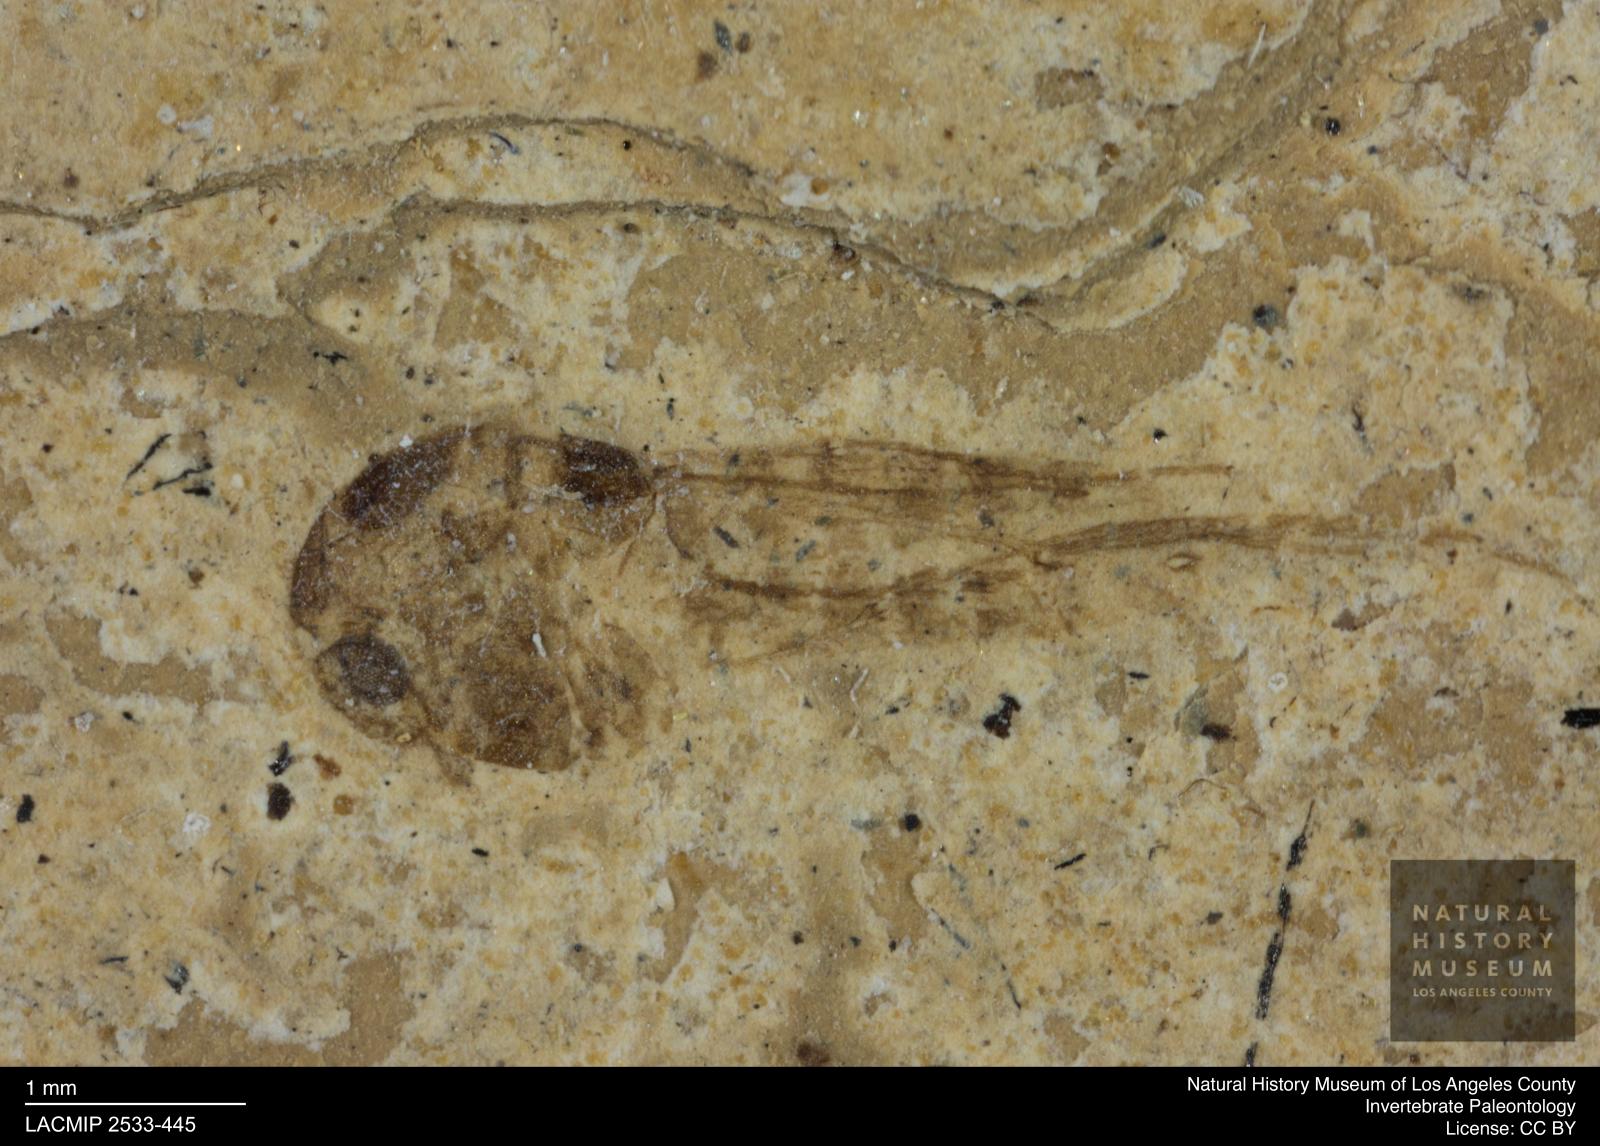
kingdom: Animalia
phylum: Arthropoda
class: Insecta
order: Diptera
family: Chironomidae
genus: Tanypus
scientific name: Tanypus thienemanni
